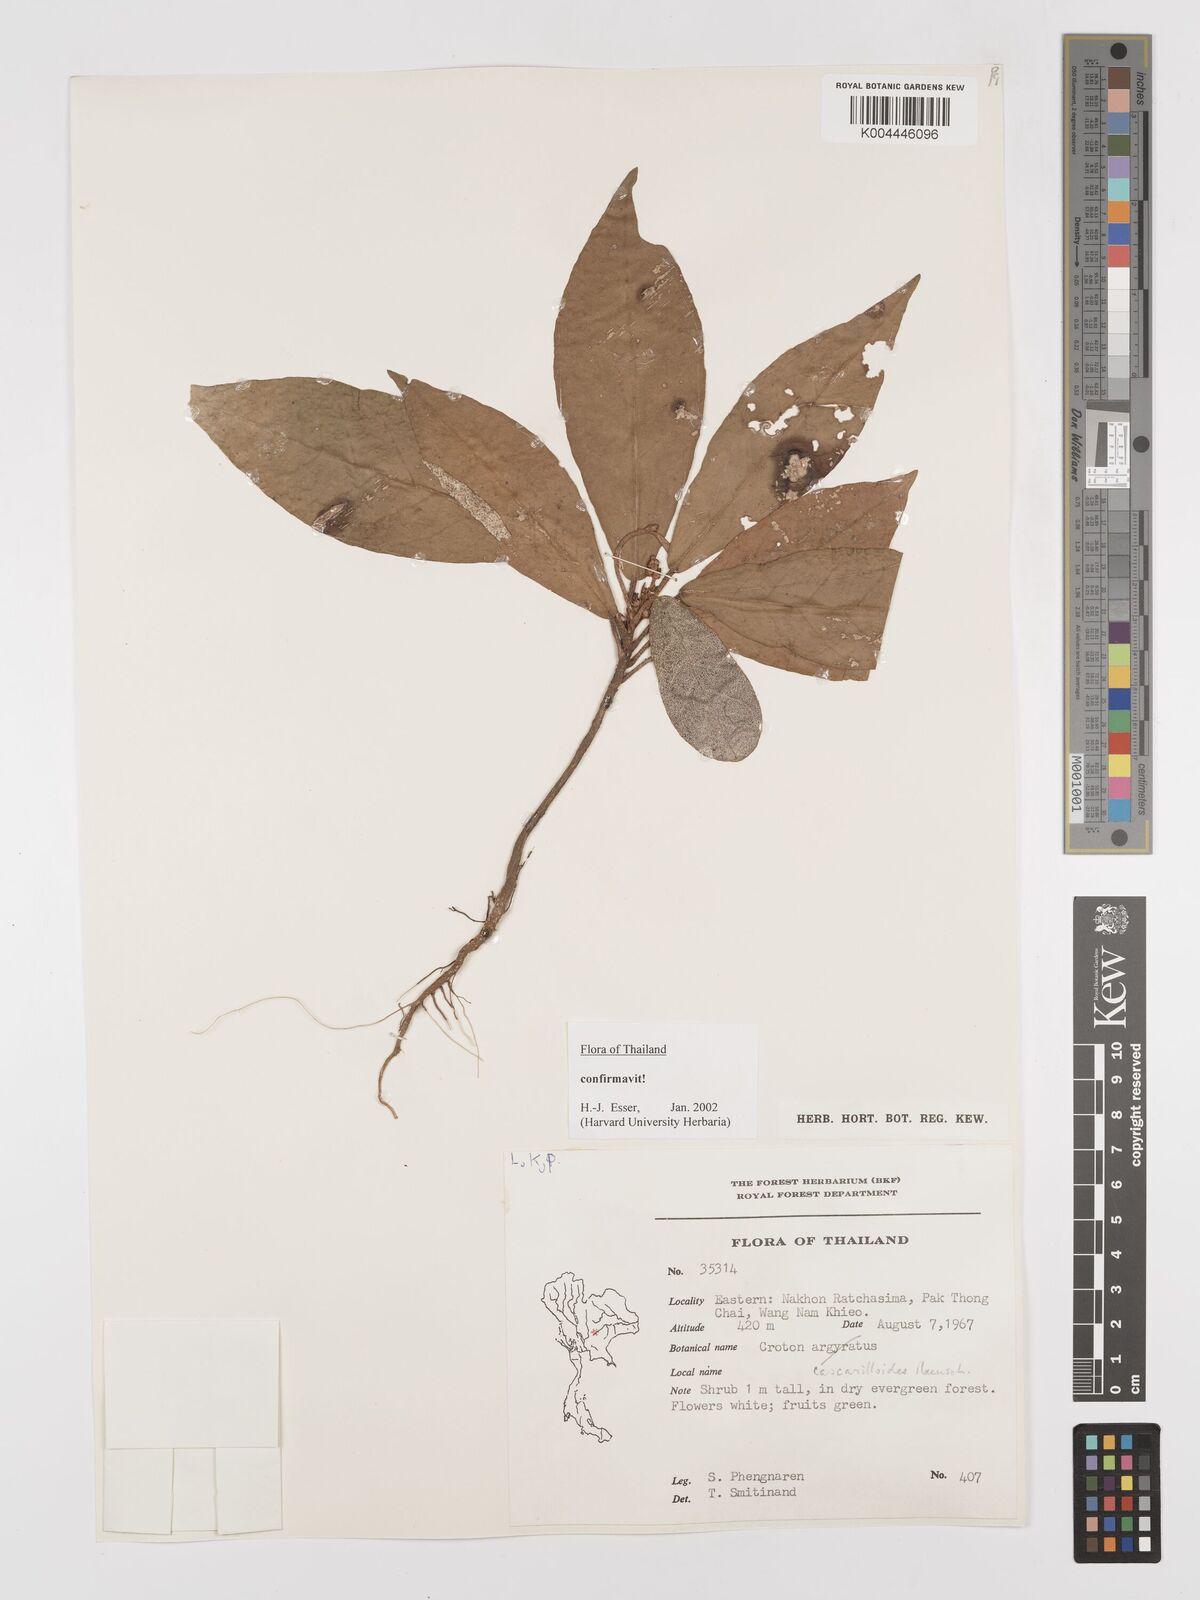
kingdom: Plantae
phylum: Tracheophyta
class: Magnoliopsida
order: Malpighiales
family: Euphorbiaceae
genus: Croton
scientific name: Croton cascarilloides
